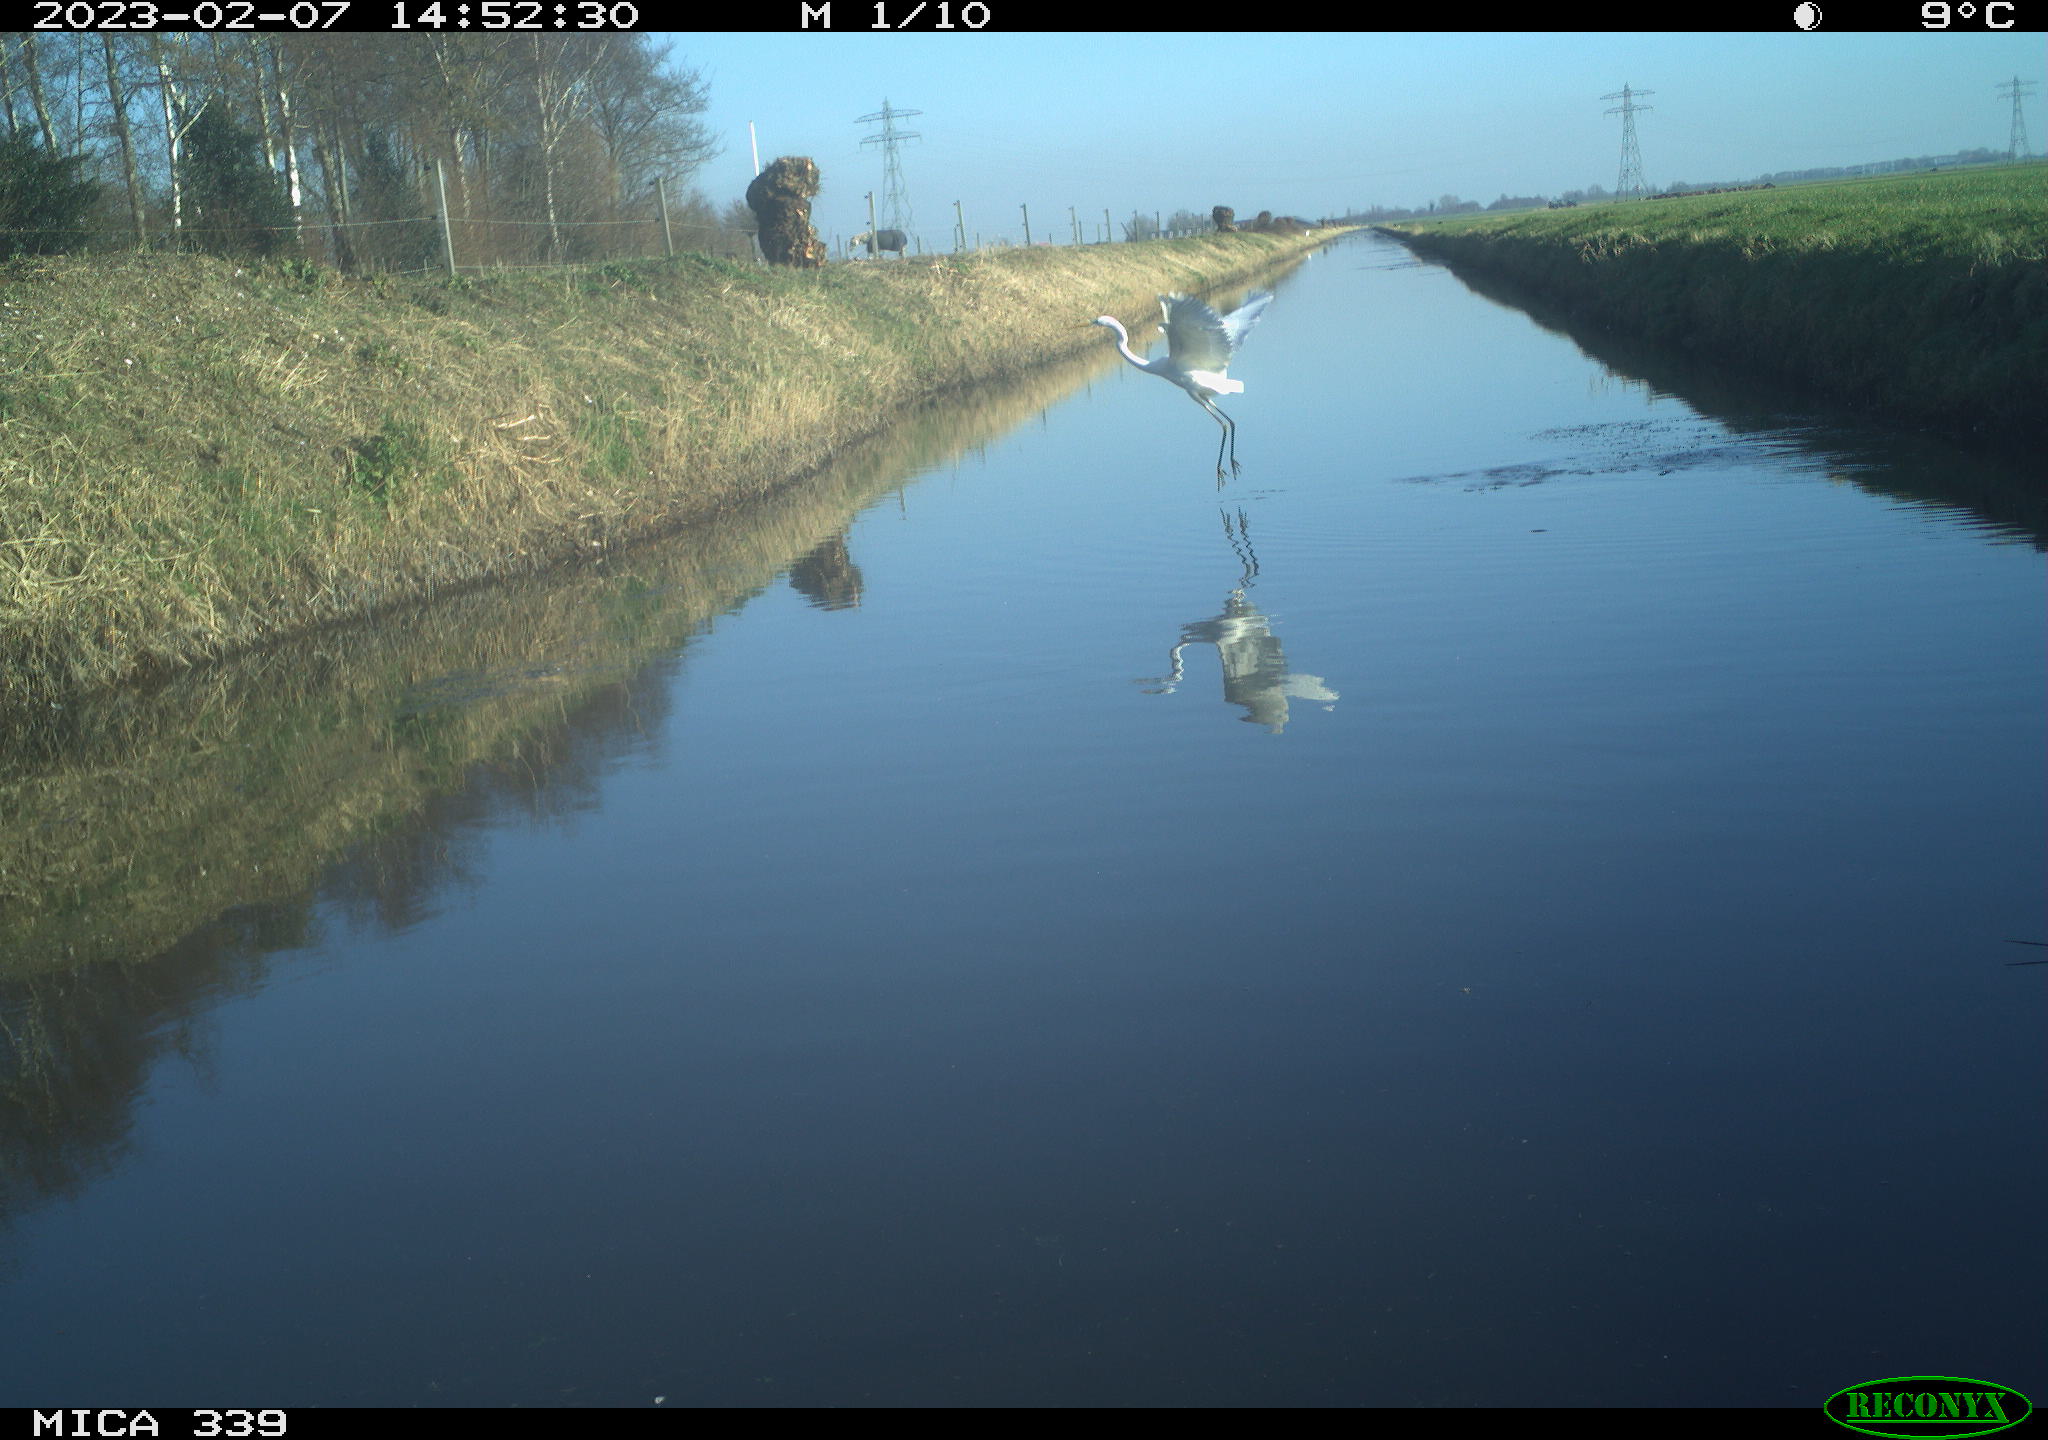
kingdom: Animalia
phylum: Chordata
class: Aves
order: Pelecaniformes
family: Ardeidae
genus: Ardea
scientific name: Ardea alba
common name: Great egret
